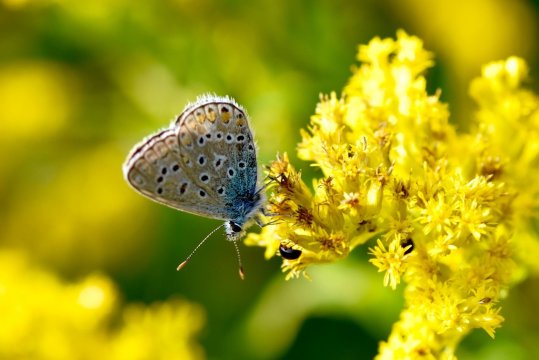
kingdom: Animalia
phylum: Arthropoda
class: Insecta
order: Lepidoptera
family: Lycaenidae
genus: Polyommatus
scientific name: Polyommatus icarus
